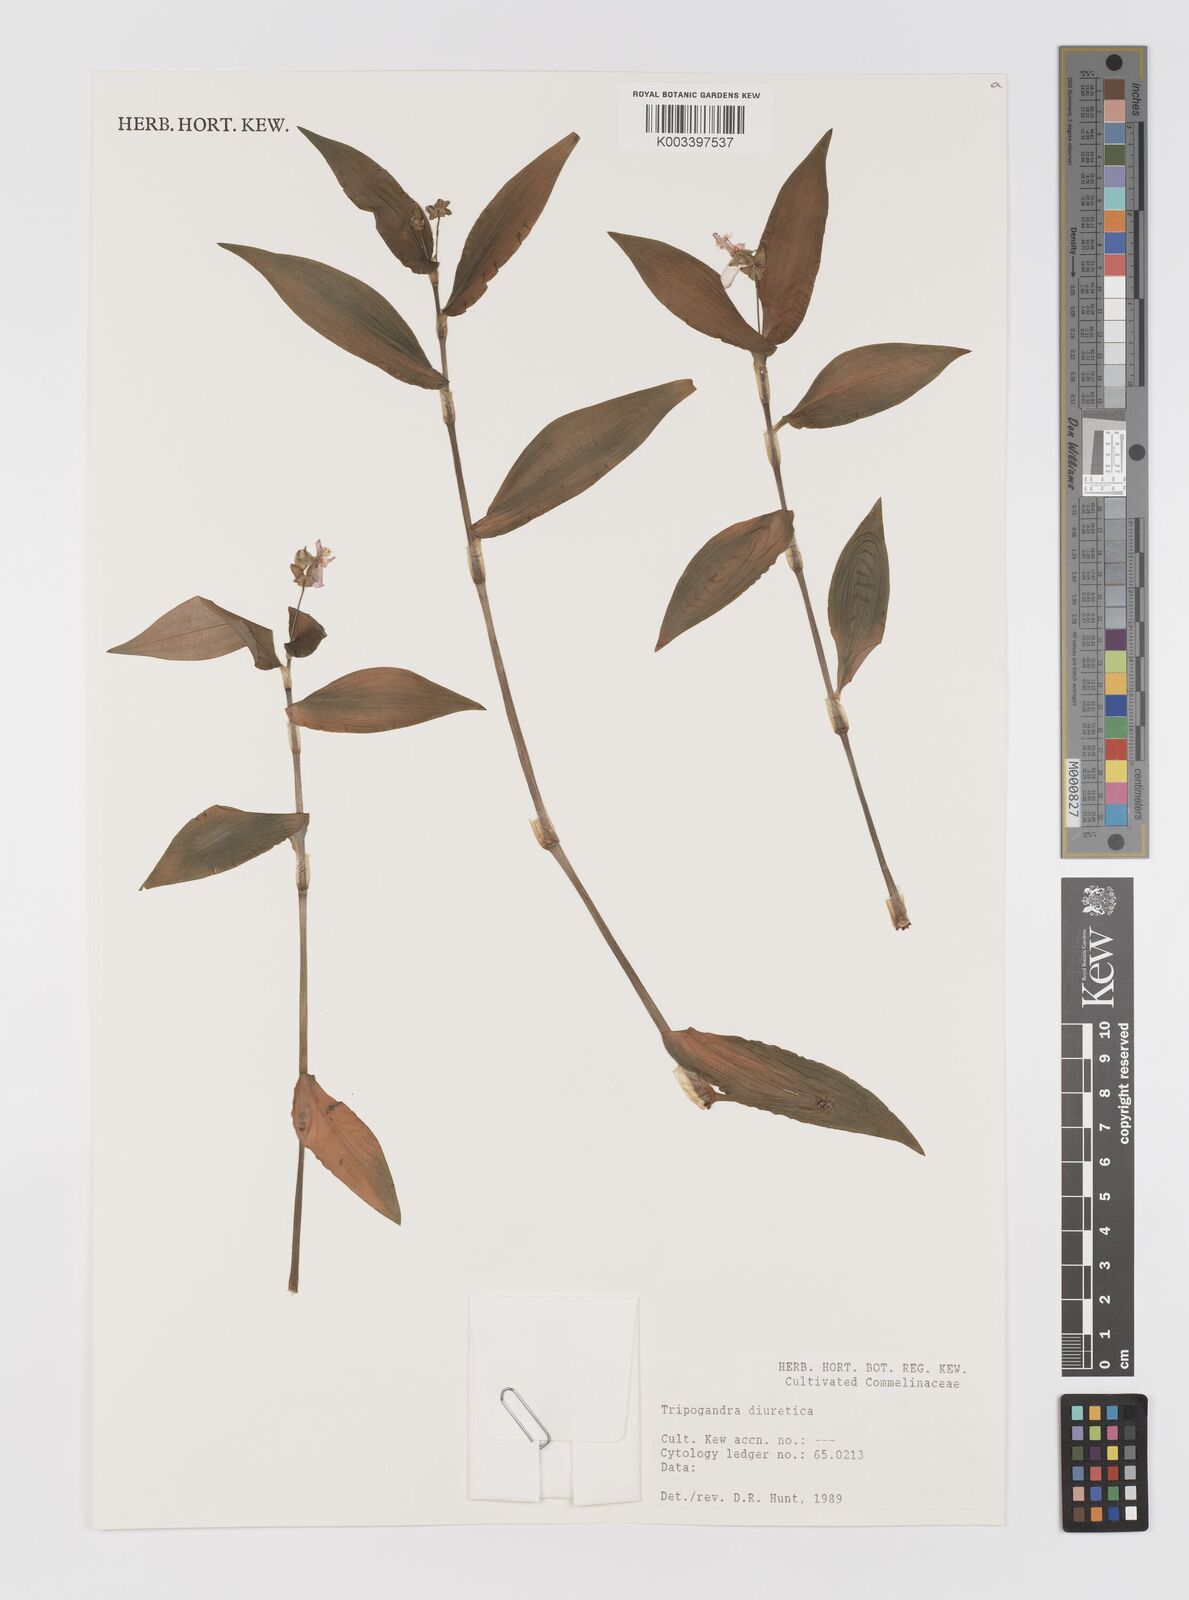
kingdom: Plantae
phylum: Tracheophyta
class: Liliopsida
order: Commelinales
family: Commelinaceae
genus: Callisia
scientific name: Callisia diuretica
